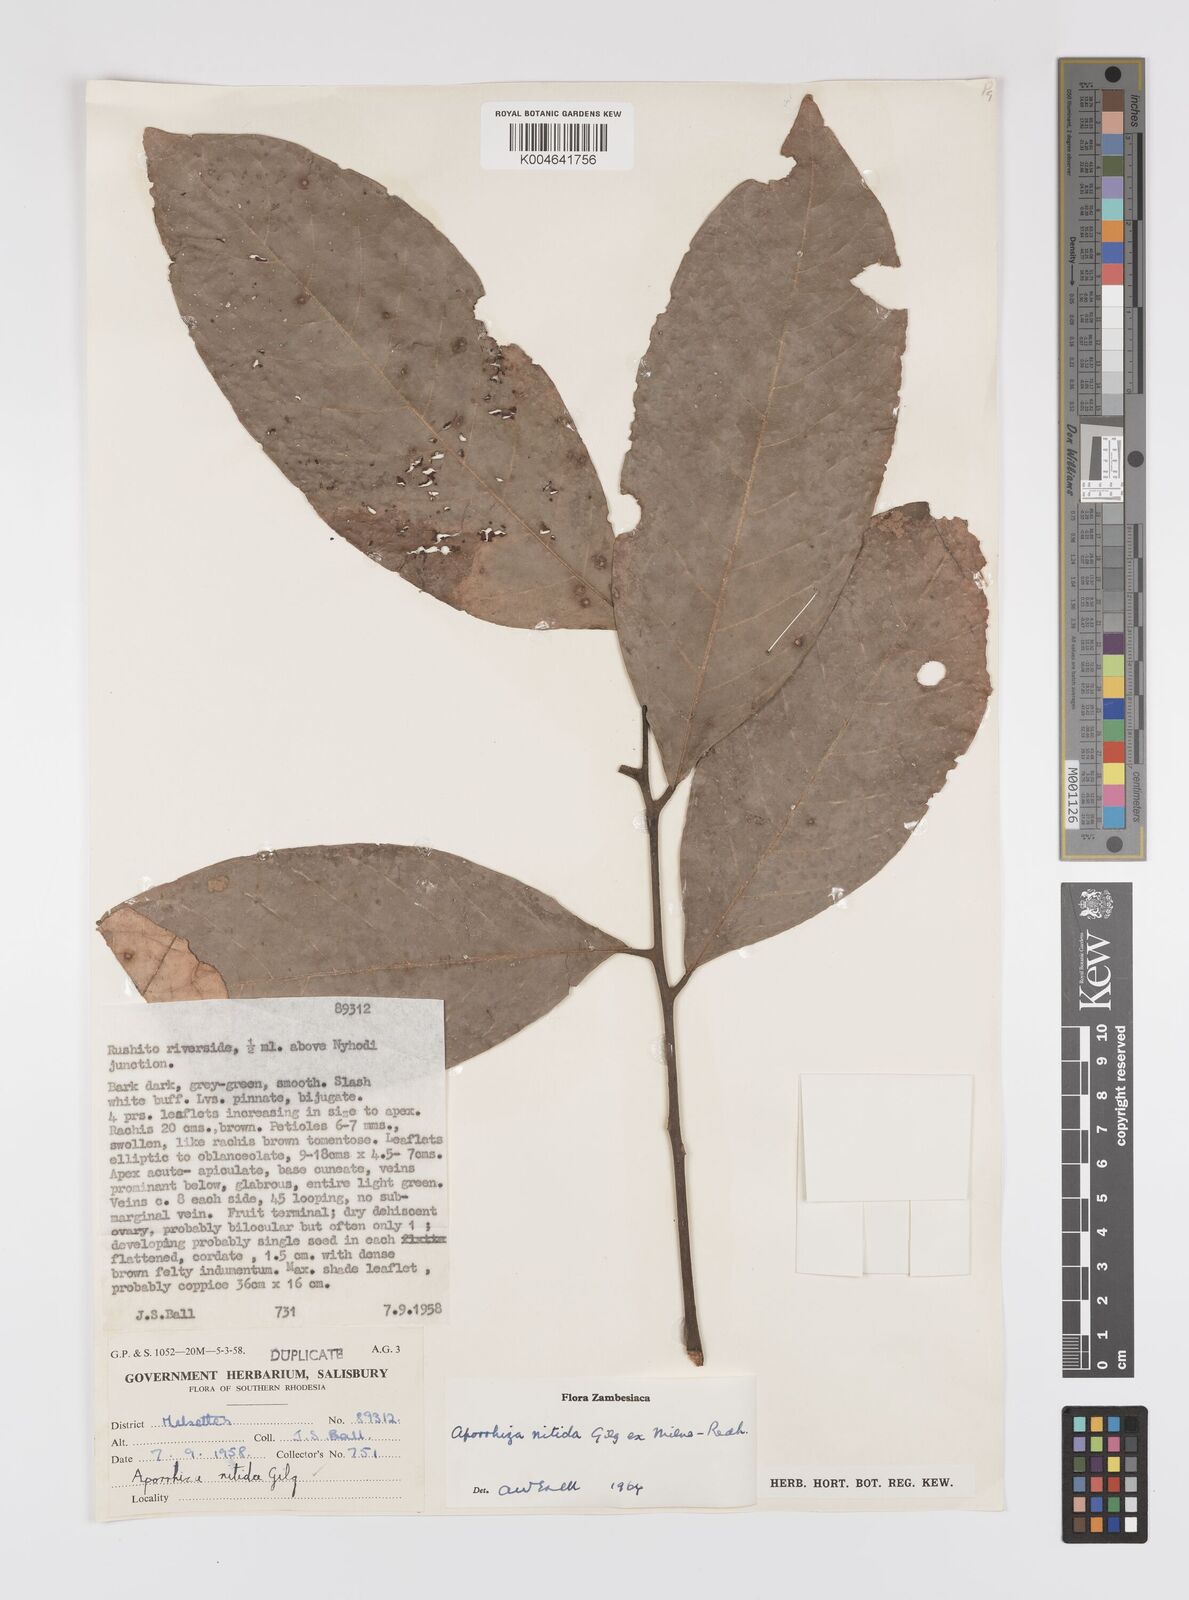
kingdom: Plantae
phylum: Tracheophyta
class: Magnoliopsida
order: Sapindales
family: Sapindaceae
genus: Aporrhiza
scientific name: Aporrhiza paniculata
